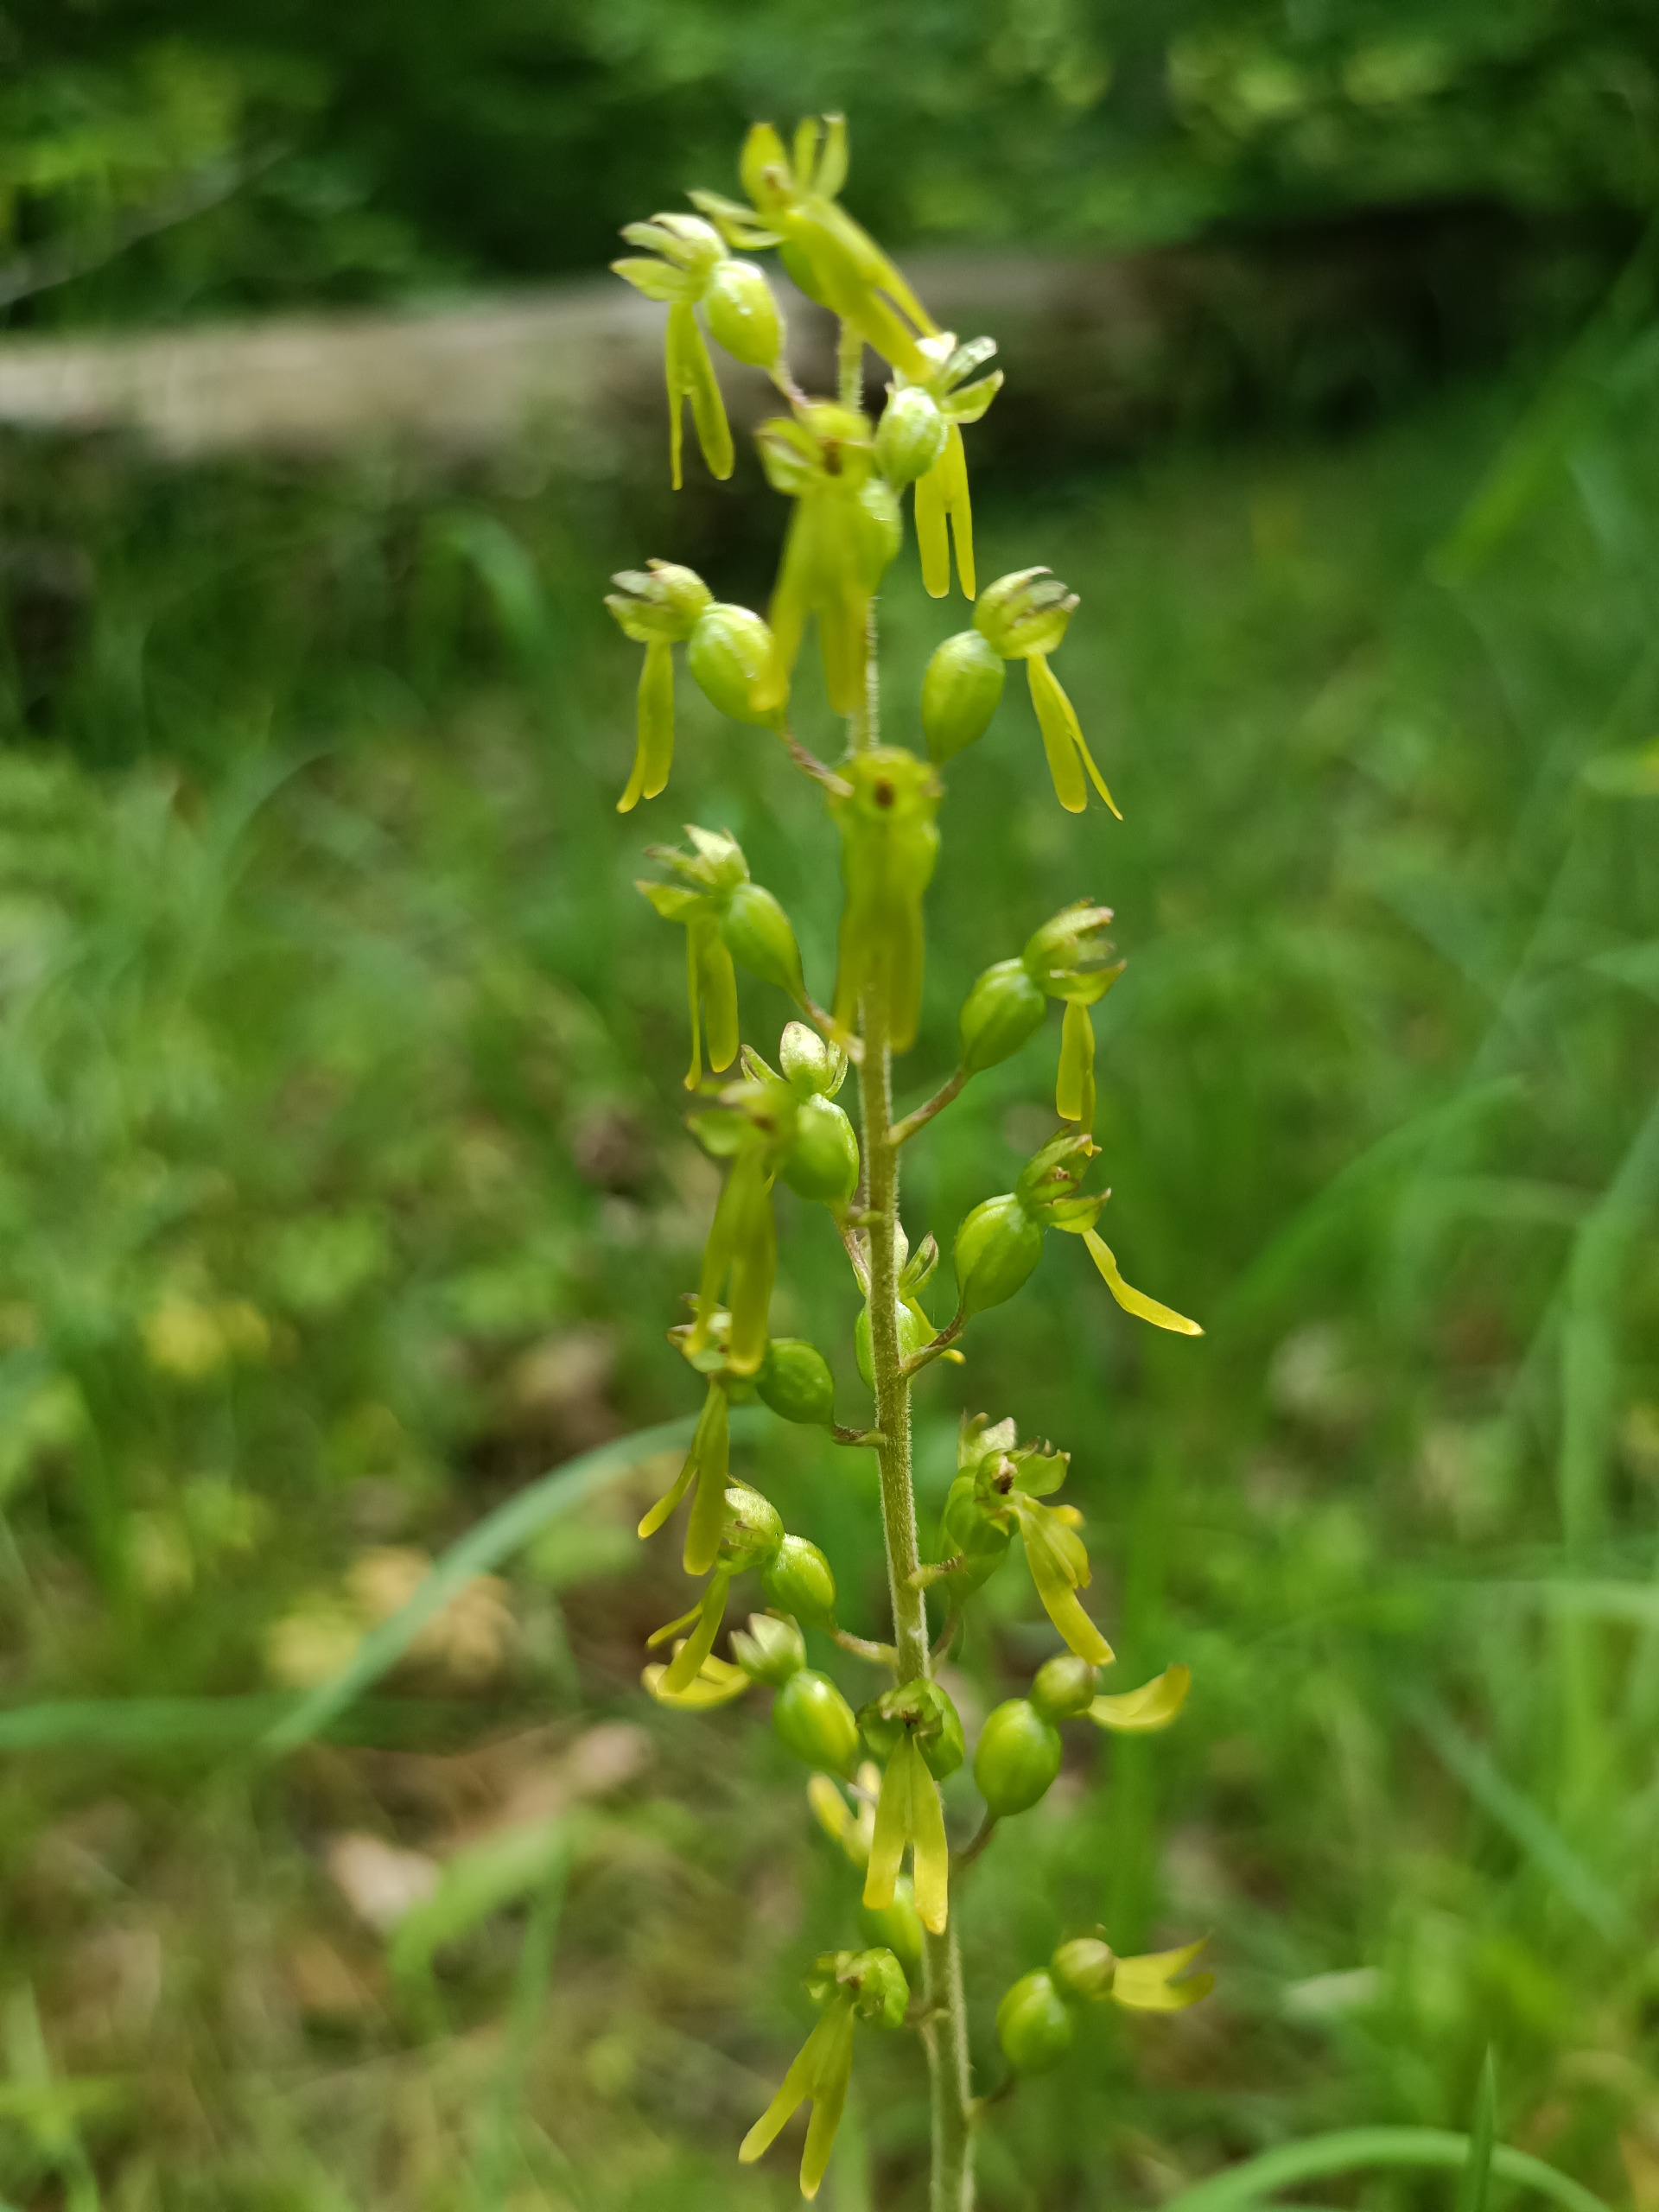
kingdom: Plantae
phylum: Tracheophyta
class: Liliopsida
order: Asparagales
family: Orchidaceae
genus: Neottia
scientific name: Neottia ovata
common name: Ægbladet fliglæbe
